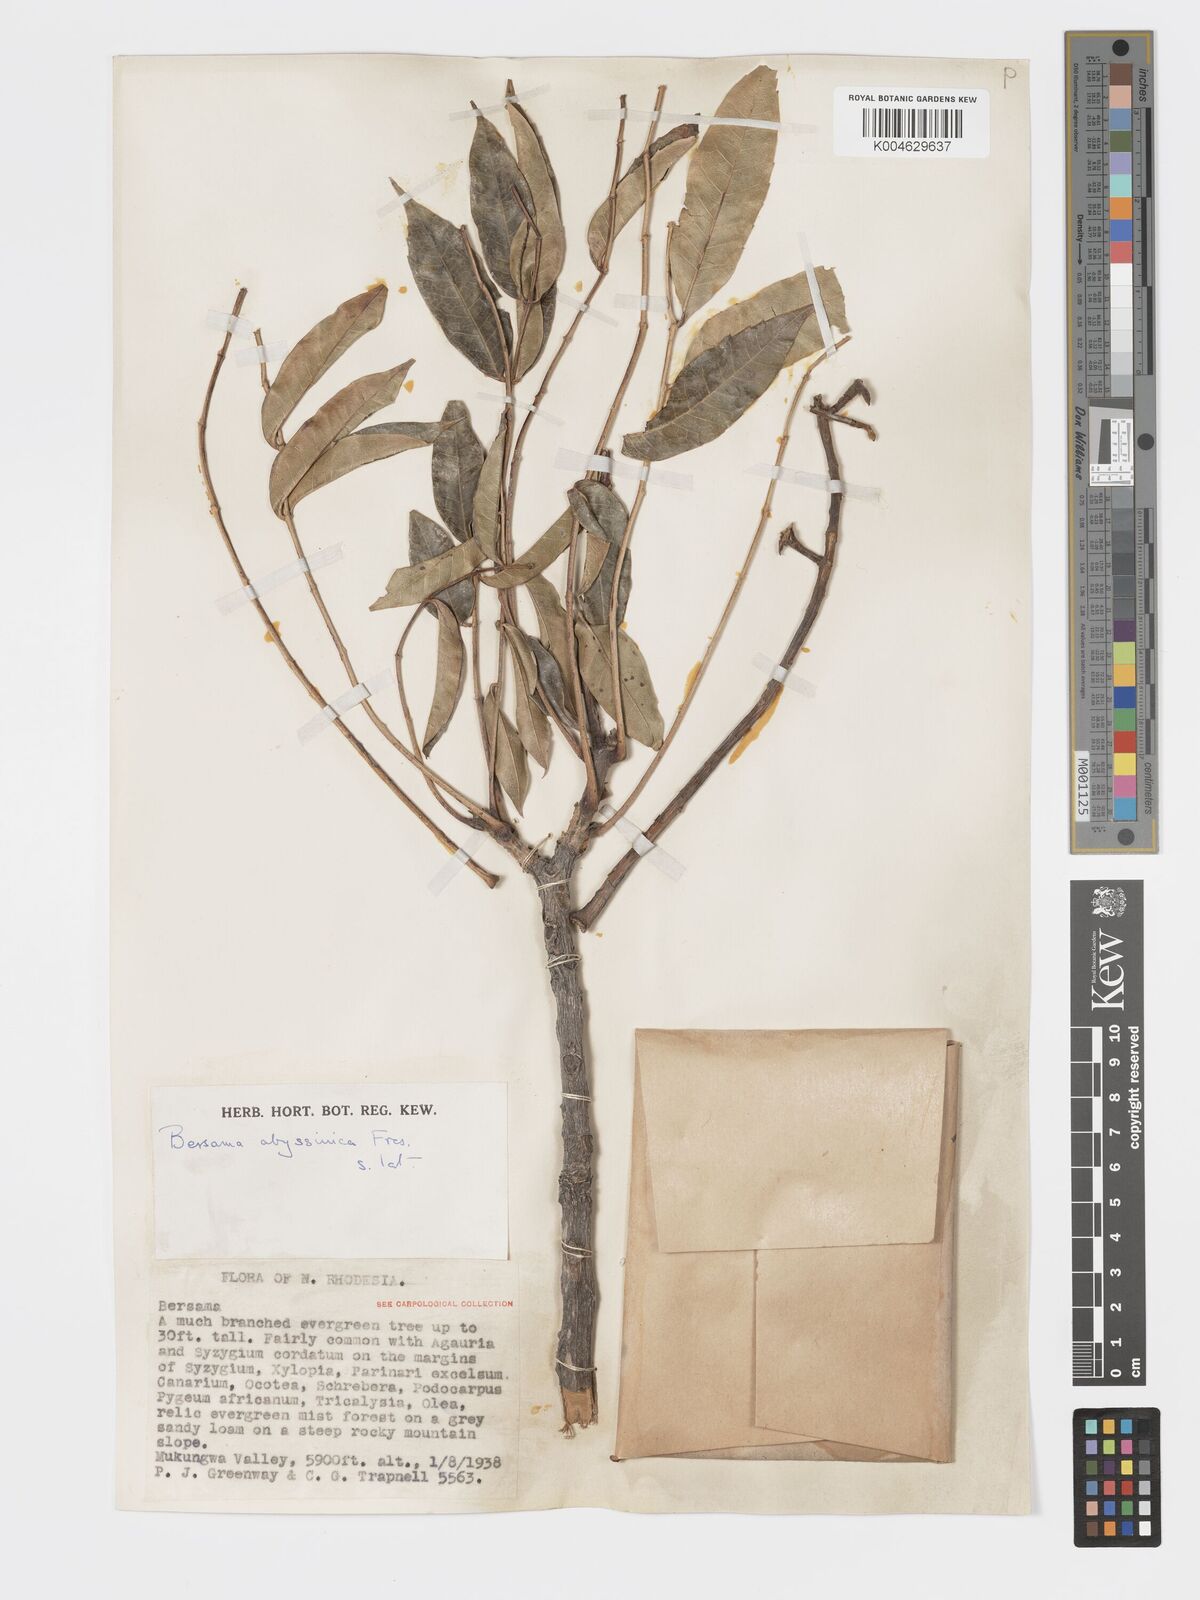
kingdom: Plantae
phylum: Tracheophyta
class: Magnoliopsida
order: Geraniales
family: Melianthaceae
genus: Bersama
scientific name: Bersama
